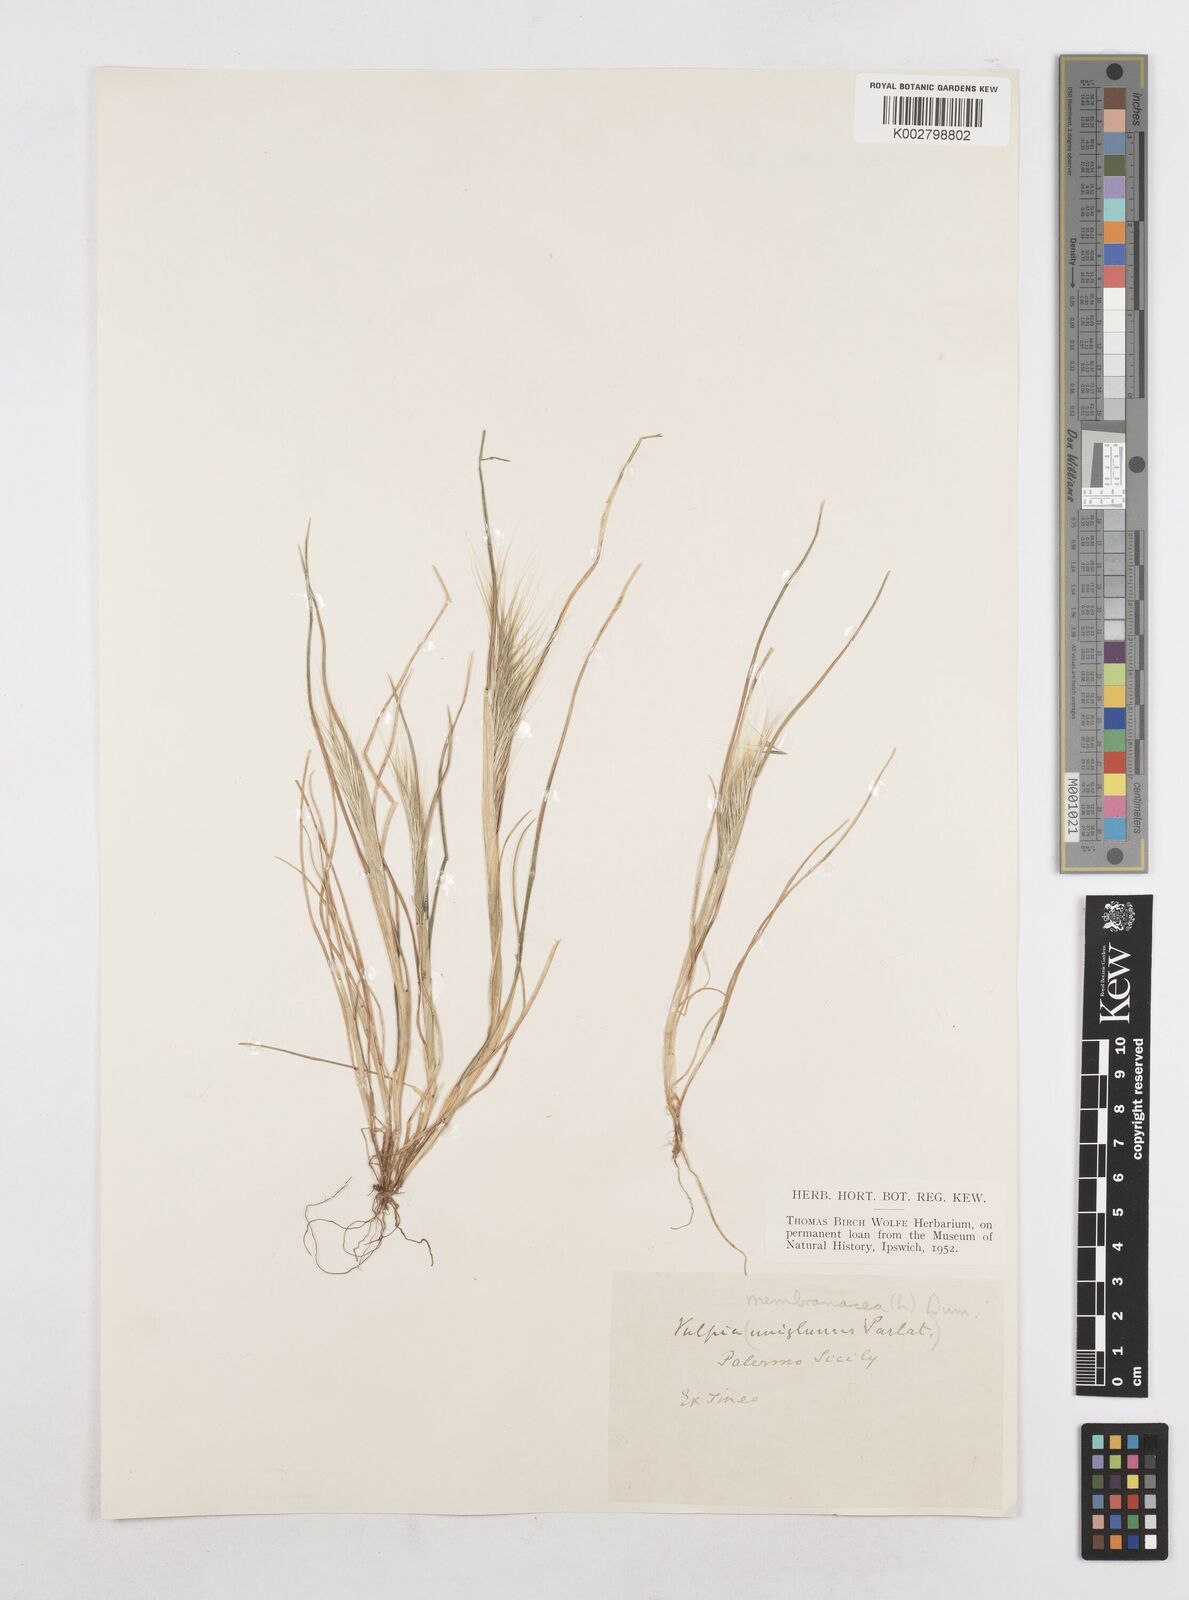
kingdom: Plantae
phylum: Tracheophyta
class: Liliopsida
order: Poales
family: Poaceae
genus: Festuca
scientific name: Festuca fasciculata
